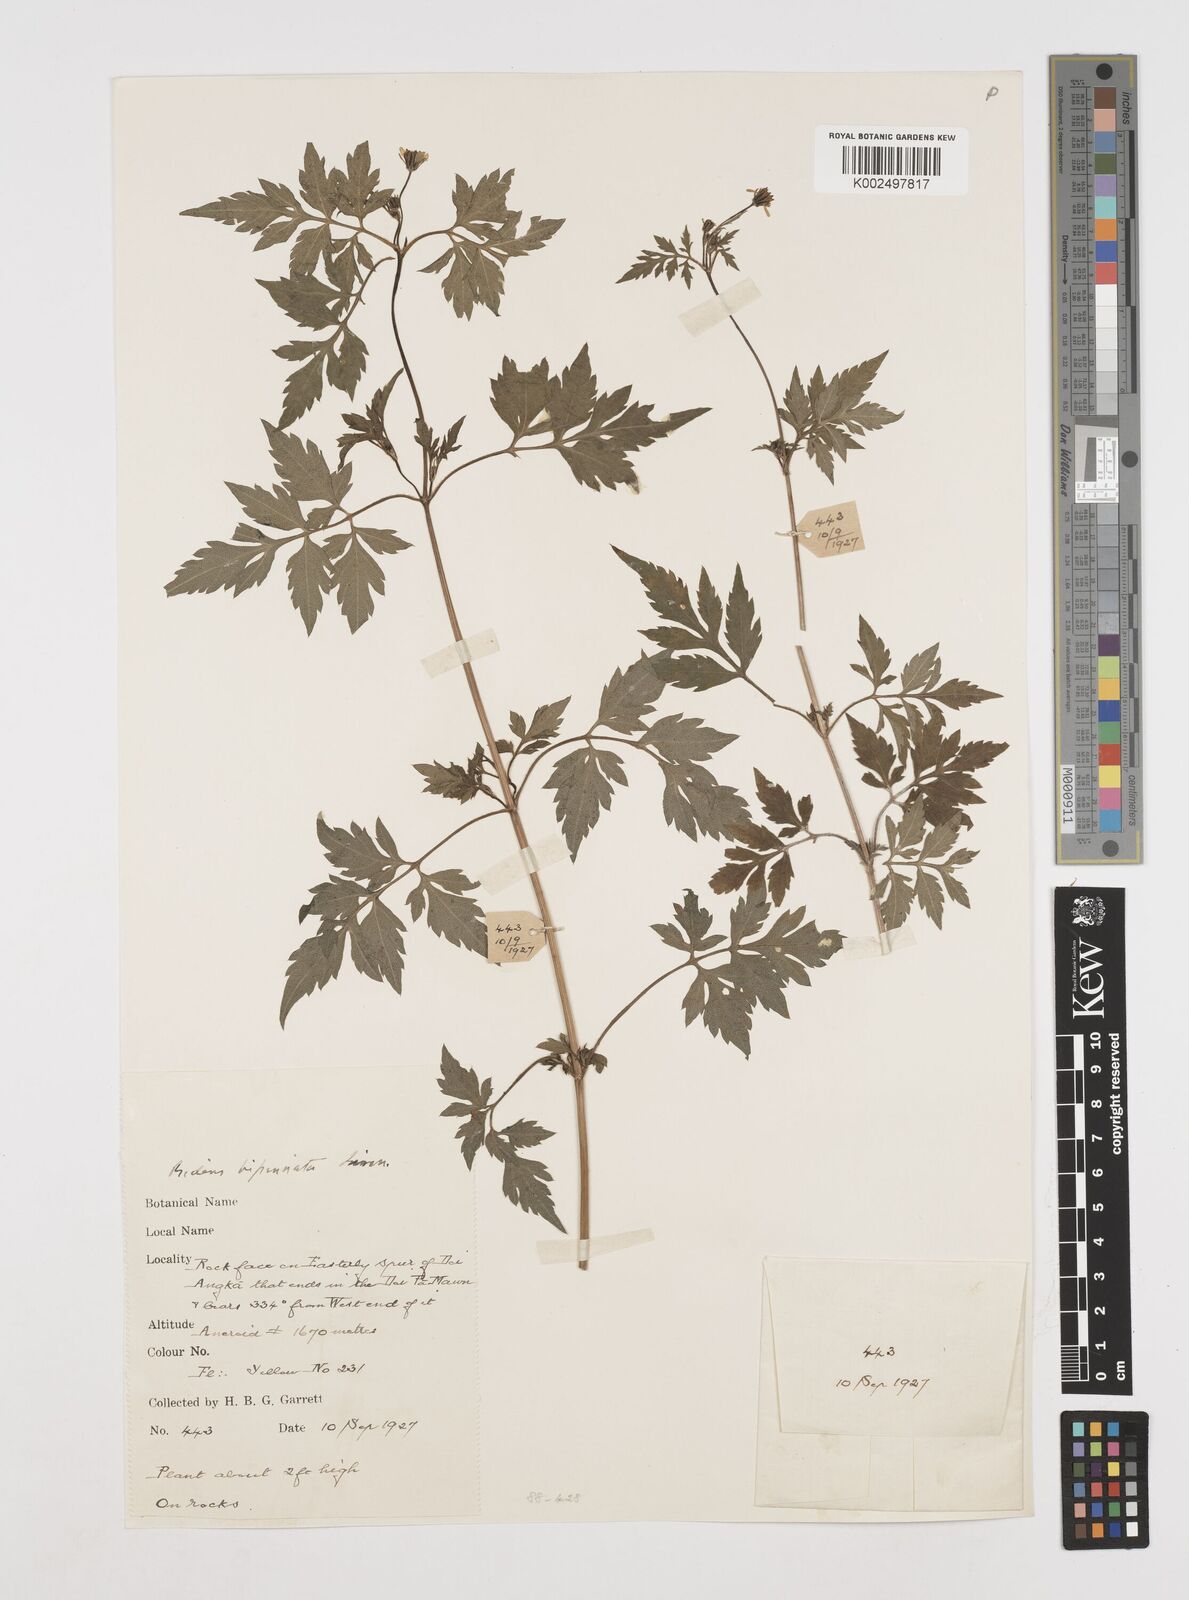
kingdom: Plantae
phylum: Tracheophyta
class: Magnoliopsida
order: Asterales
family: Asteraceae
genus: Cosmos
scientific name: Cosmos bipinnatus
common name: Garden cosmos
